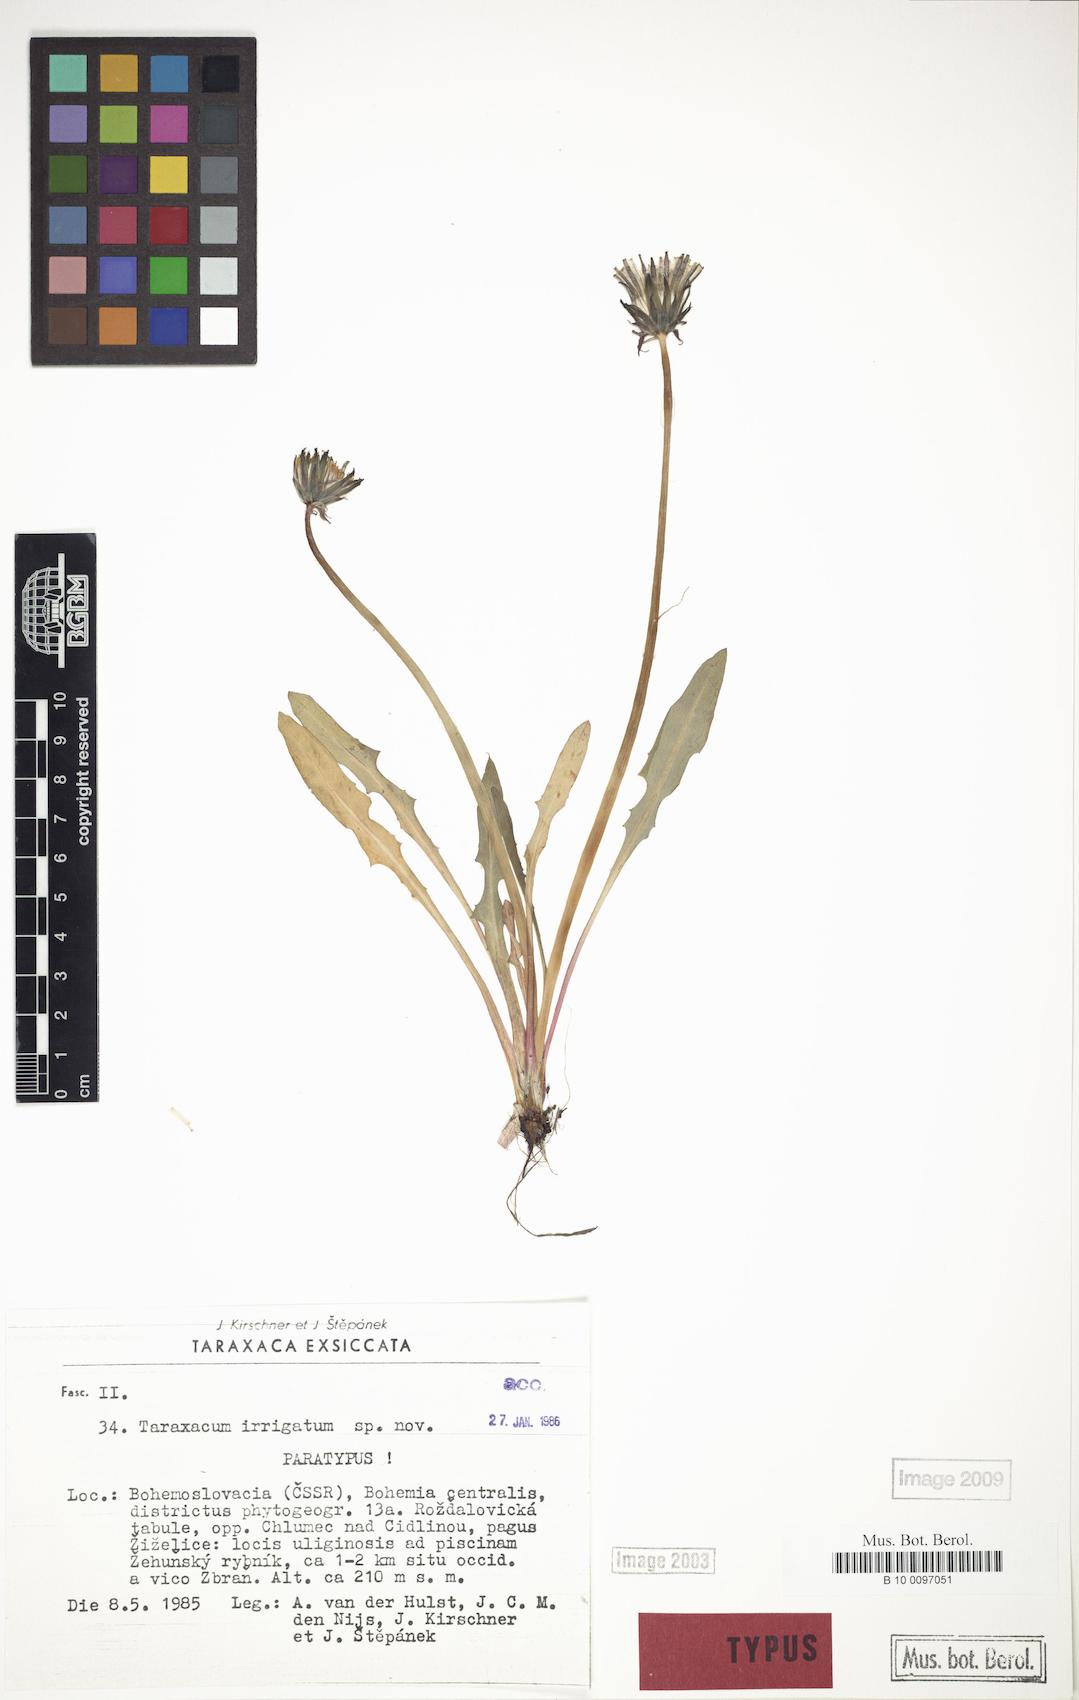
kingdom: Plantae
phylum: Tracheophyta
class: Magnoliopsida
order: Asterales
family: Asteraceae
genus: Taraxacum
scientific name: Taraxacum pseudopalustre
